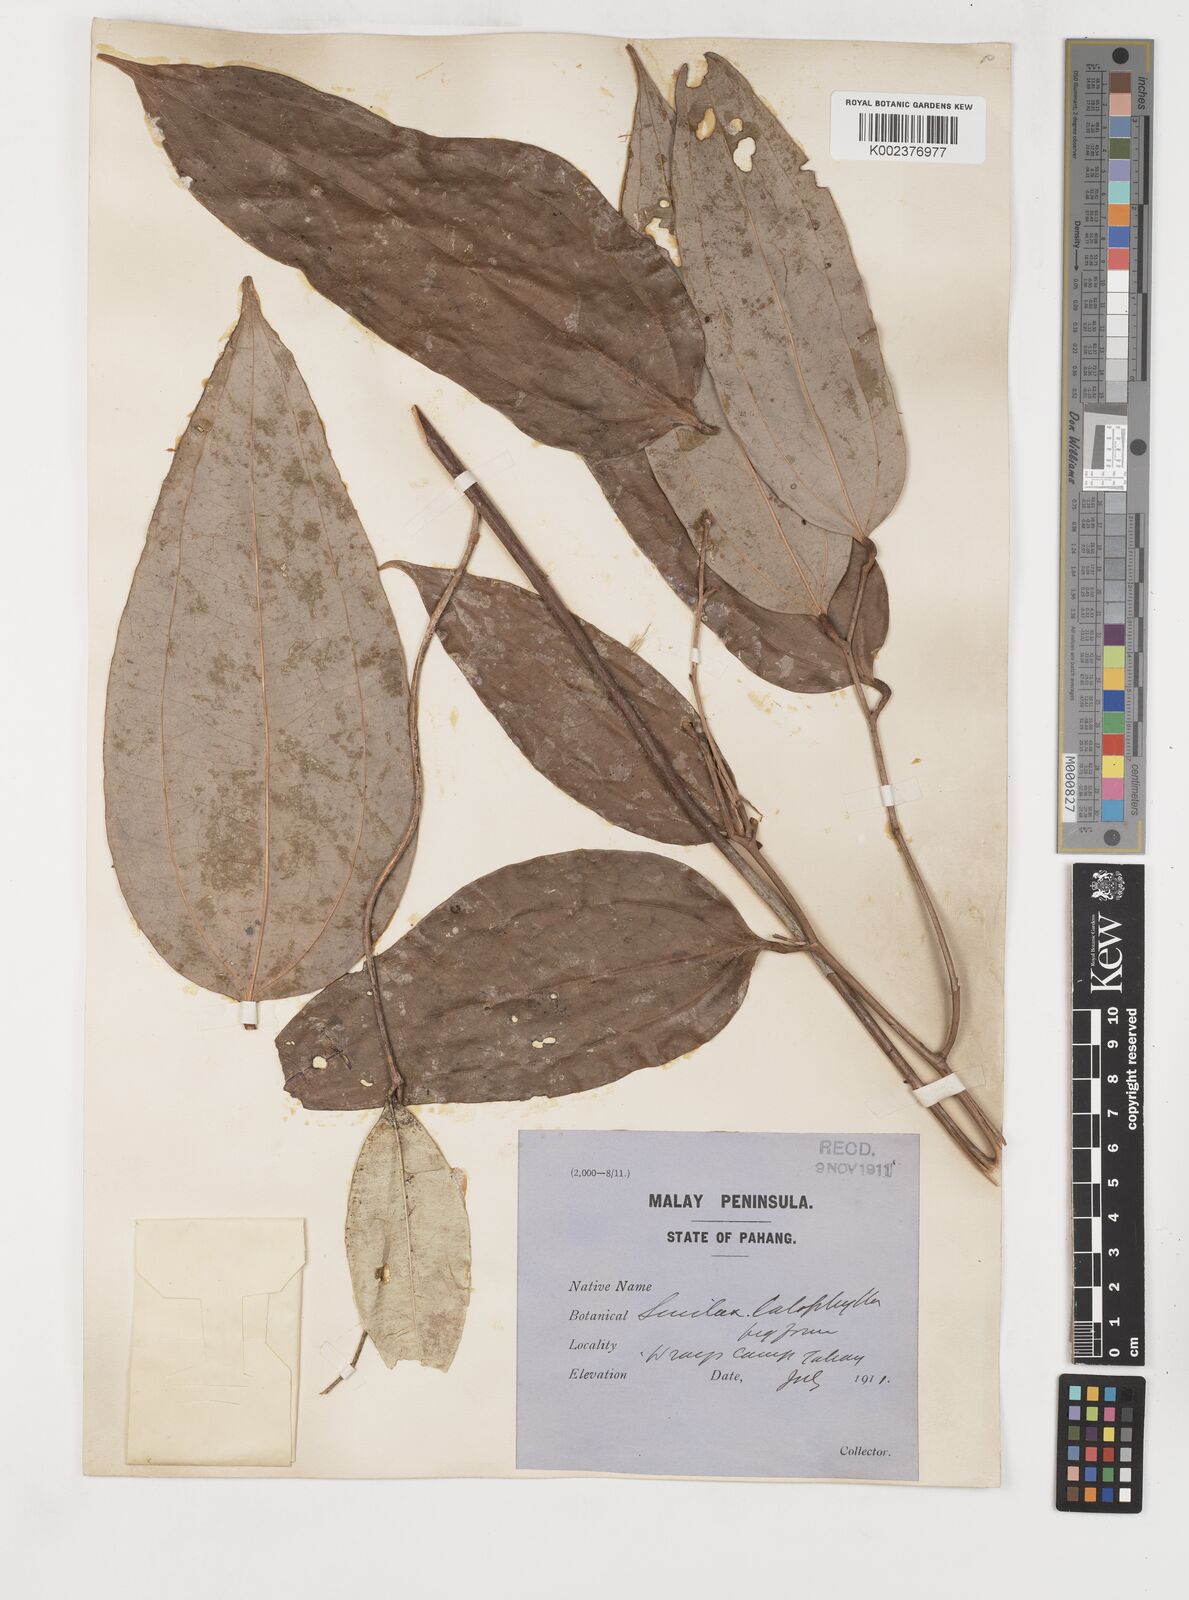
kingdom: Plantae
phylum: Tracheophyta
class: Liliopsida
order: Liliales
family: Smilacaceae
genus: Smilax
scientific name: Smilax calophylla
